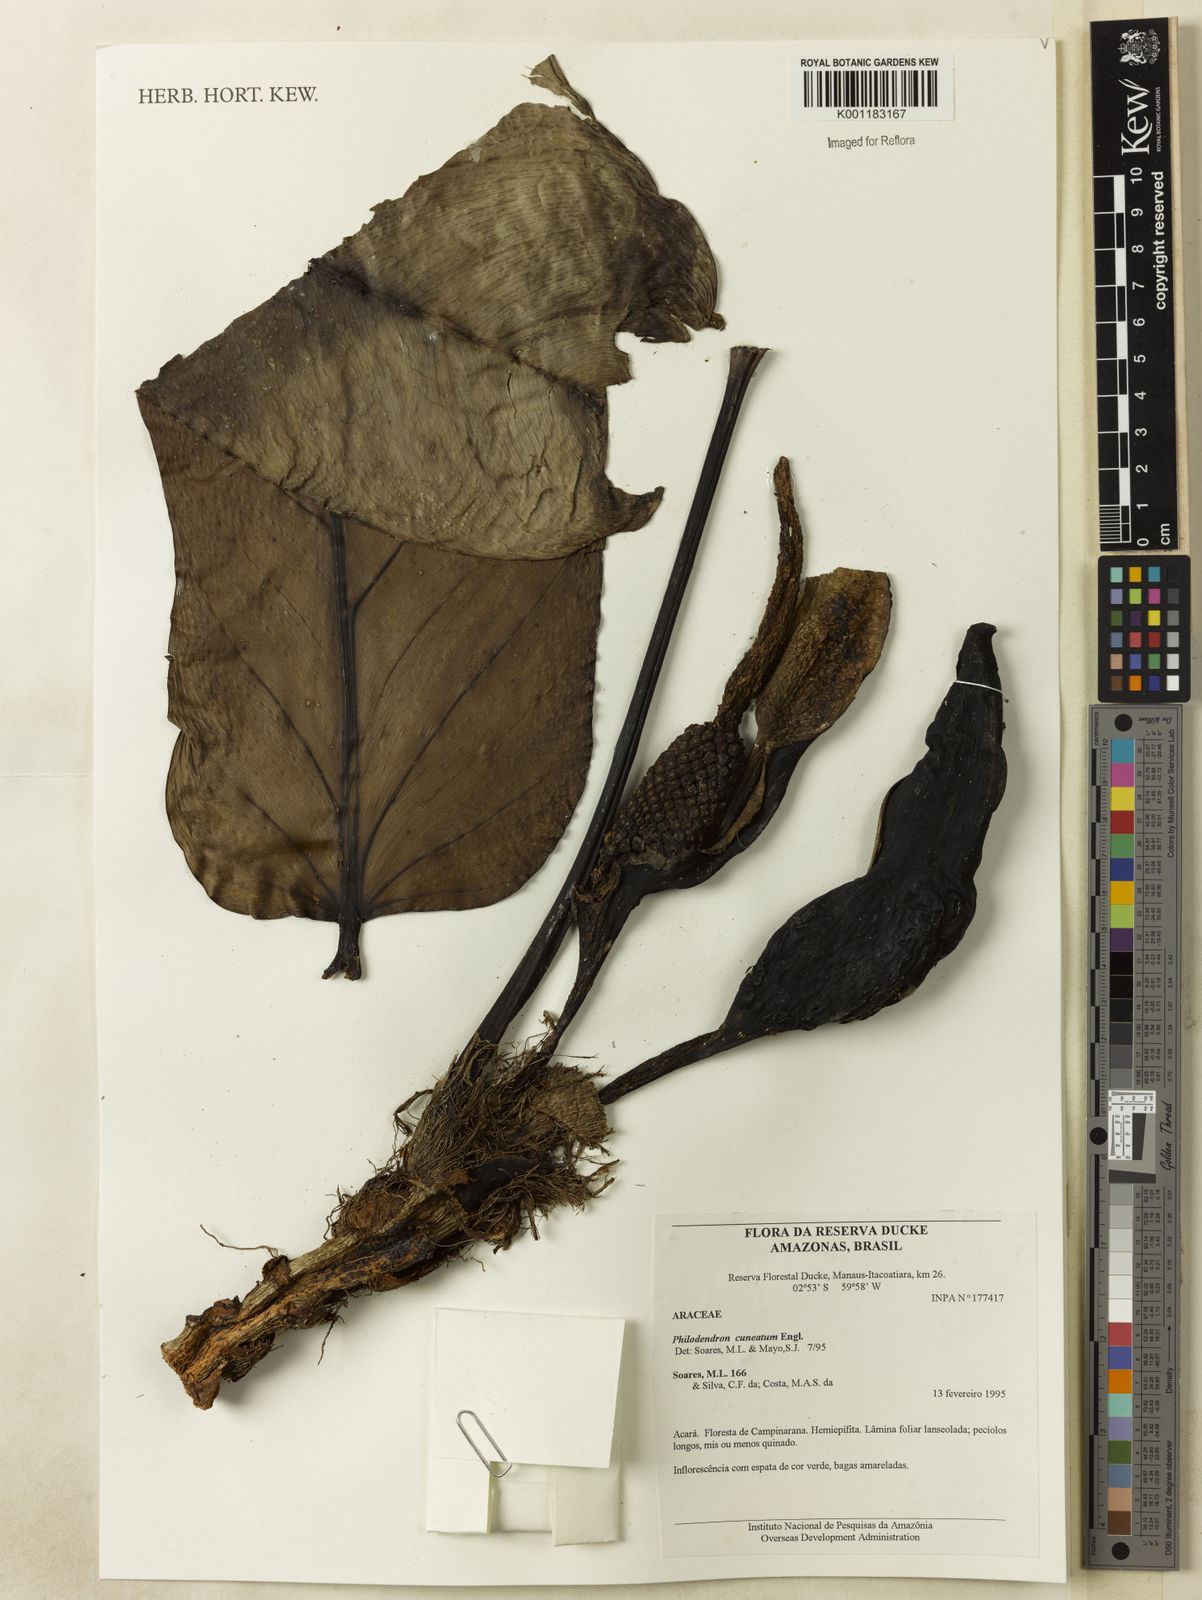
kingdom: Plantae
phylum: Tracheophyta
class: Liliopsida
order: Alismatales
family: Araceae
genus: Philodendron
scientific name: Philodendron cuneatum
